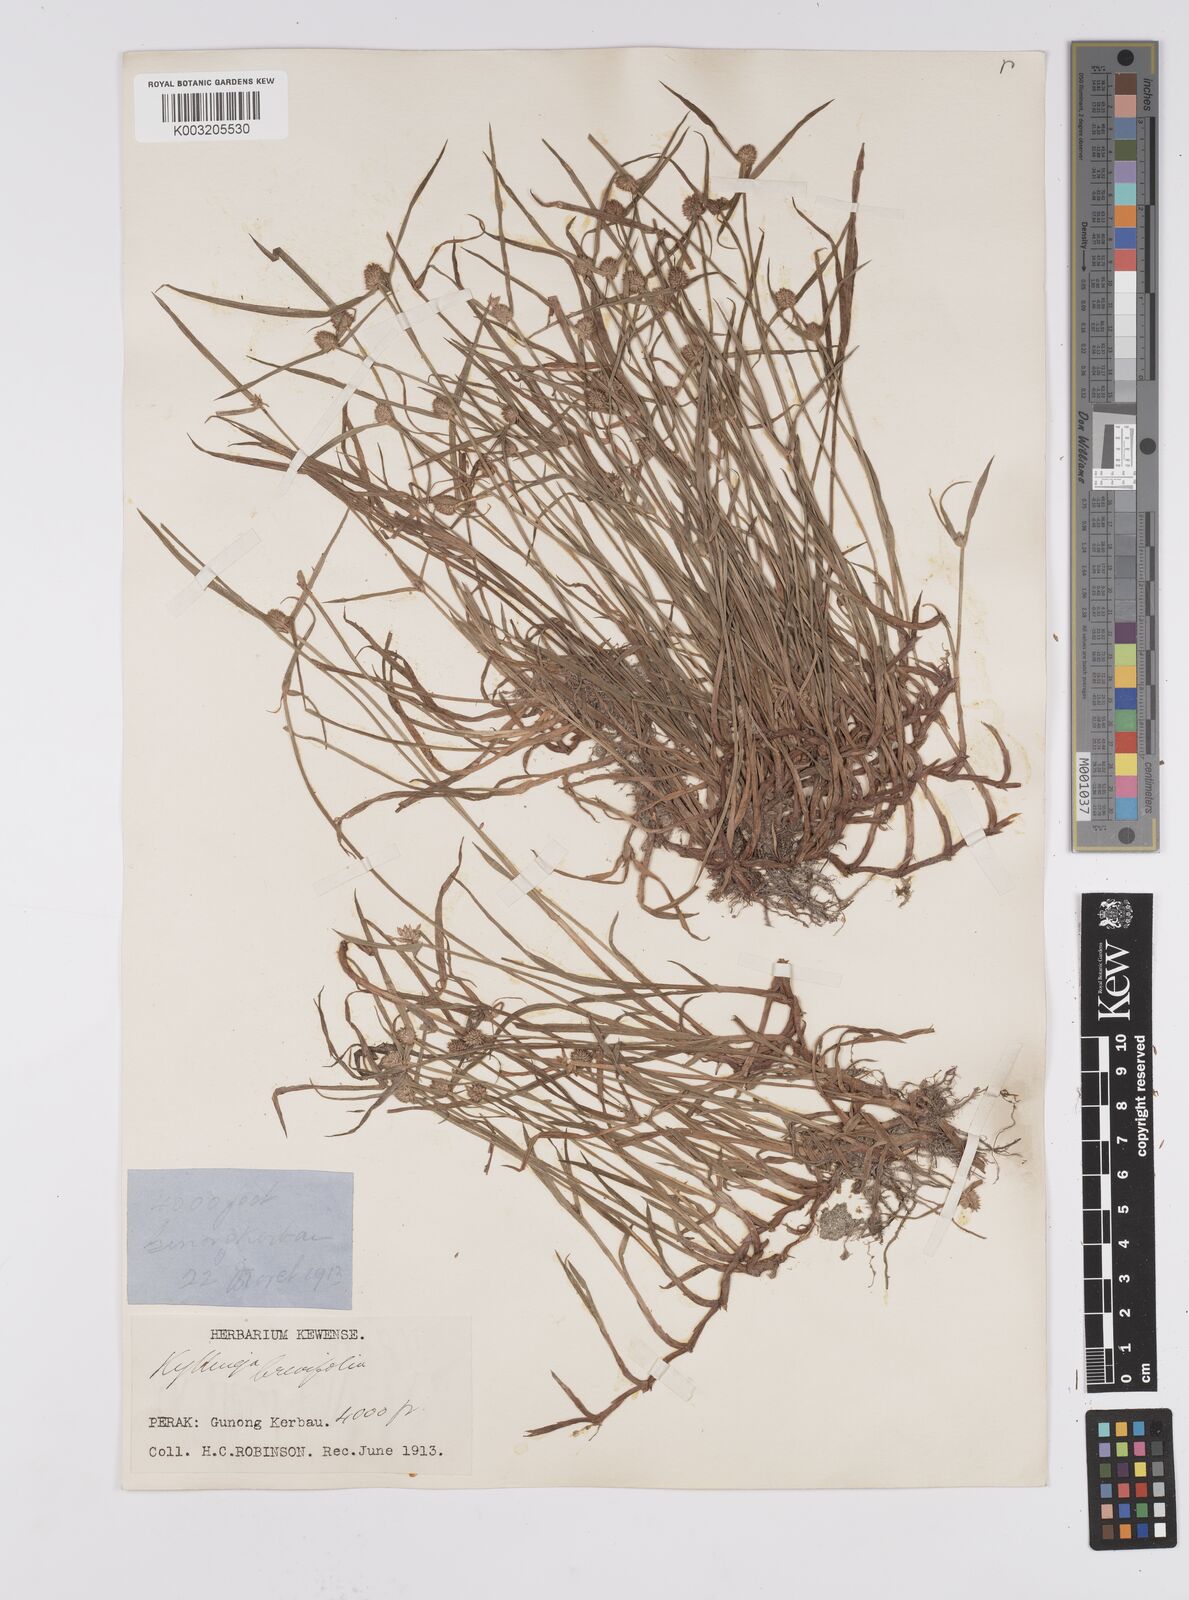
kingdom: Plantae
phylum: Tracheophyta
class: Liliopsida
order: Poales
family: Cyperaceae
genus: Cyperus
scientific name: Cyperus
